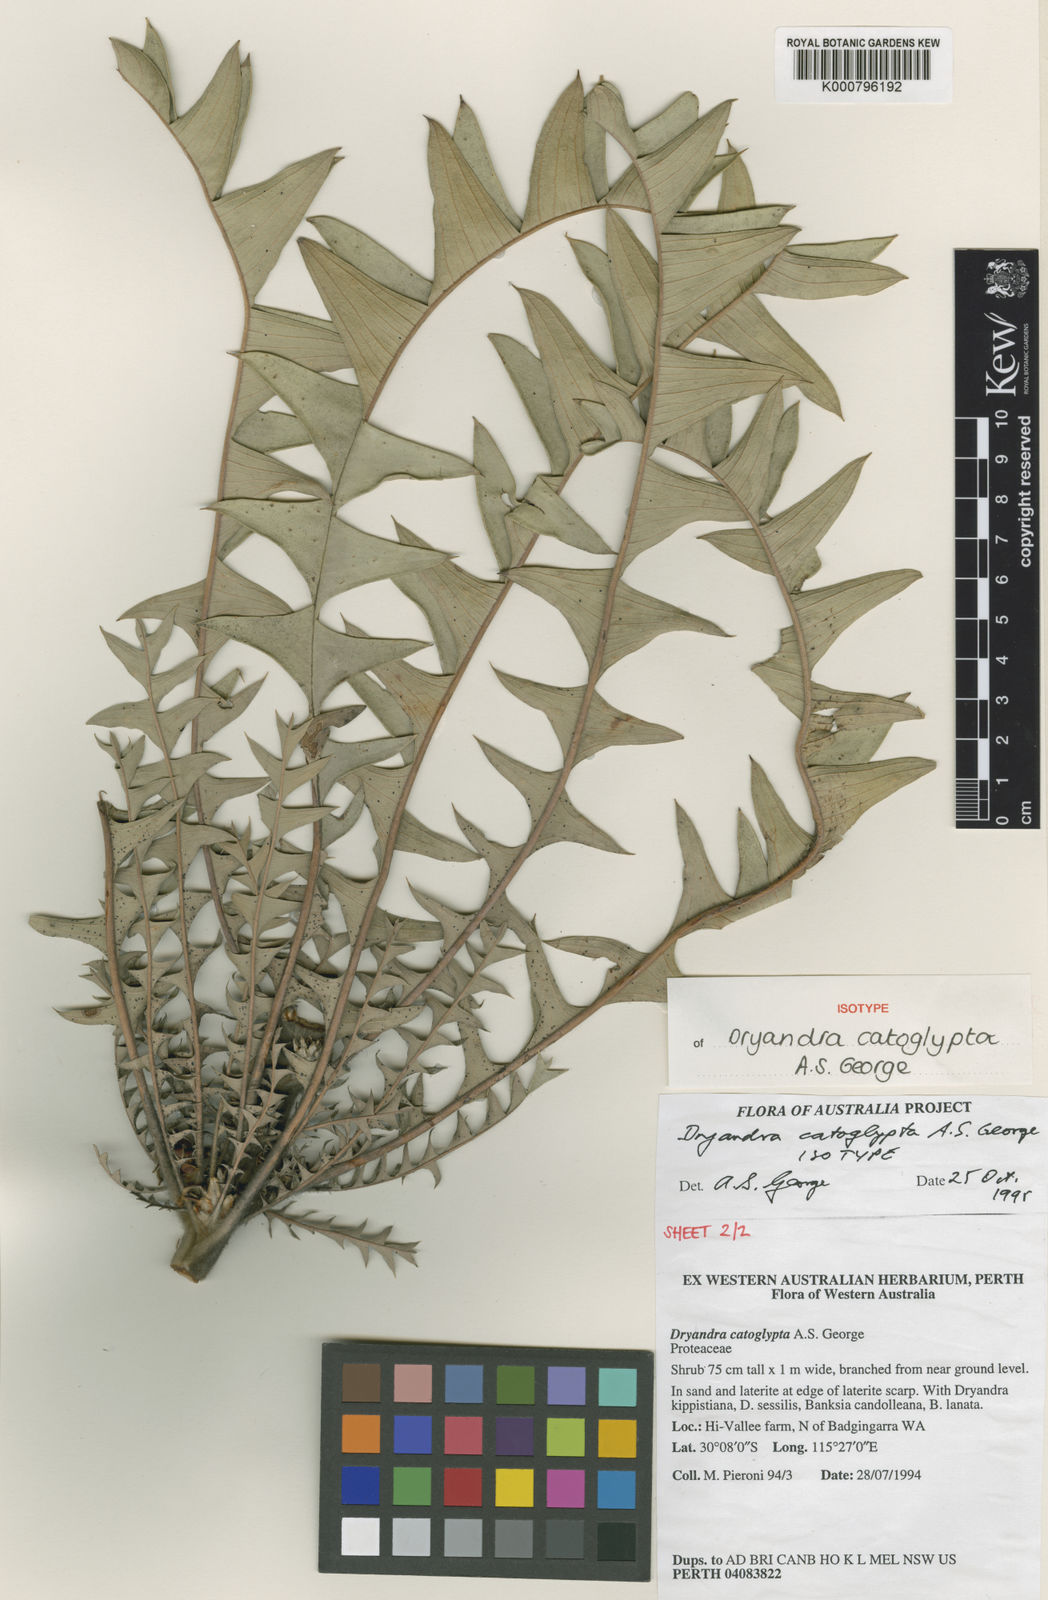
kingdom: Plantae
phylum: Tracheophyta
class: Magnoliopsida
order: Proteales
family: Proteaceae
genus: Banksia
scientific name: Banksia catoglypta
